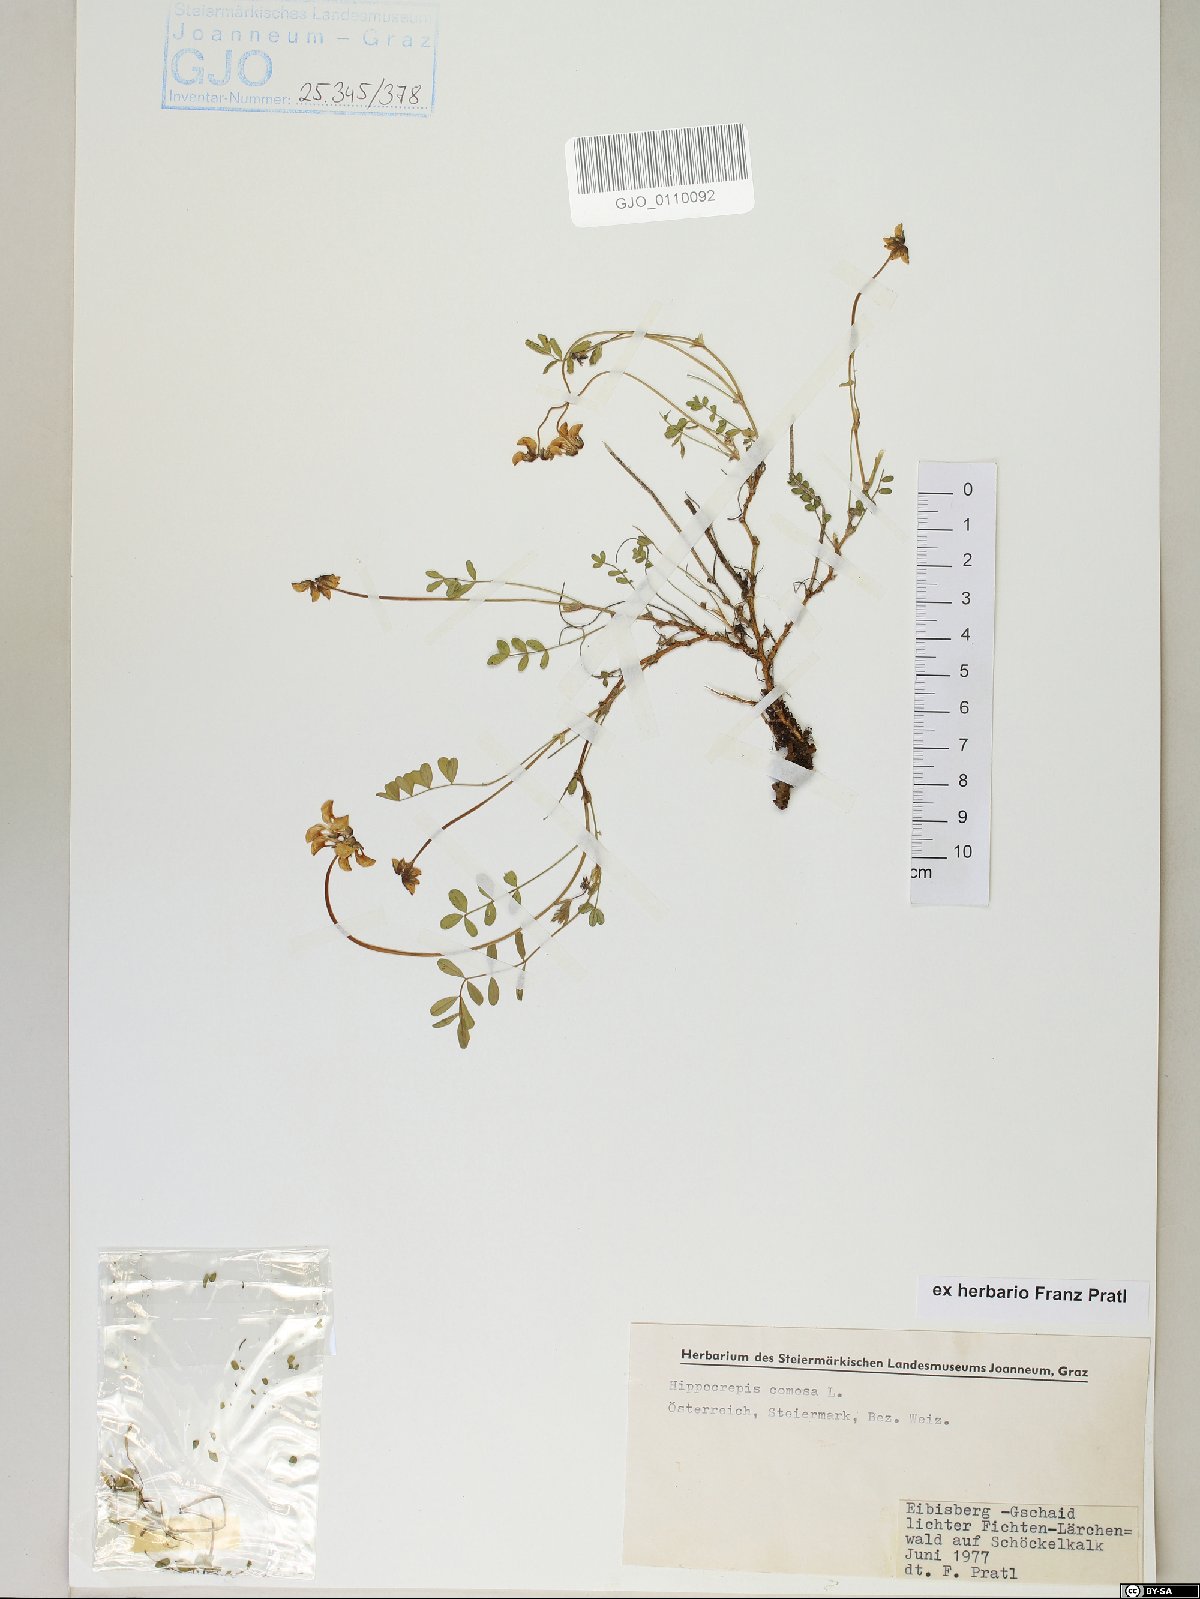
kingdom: Plantae
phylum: Tracheophyta
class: Magnoliopsida
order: Fabales
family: Fabaceae
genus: Hippocrepis
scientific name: Hippocrepis comosa
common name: Horseshoe vetch
